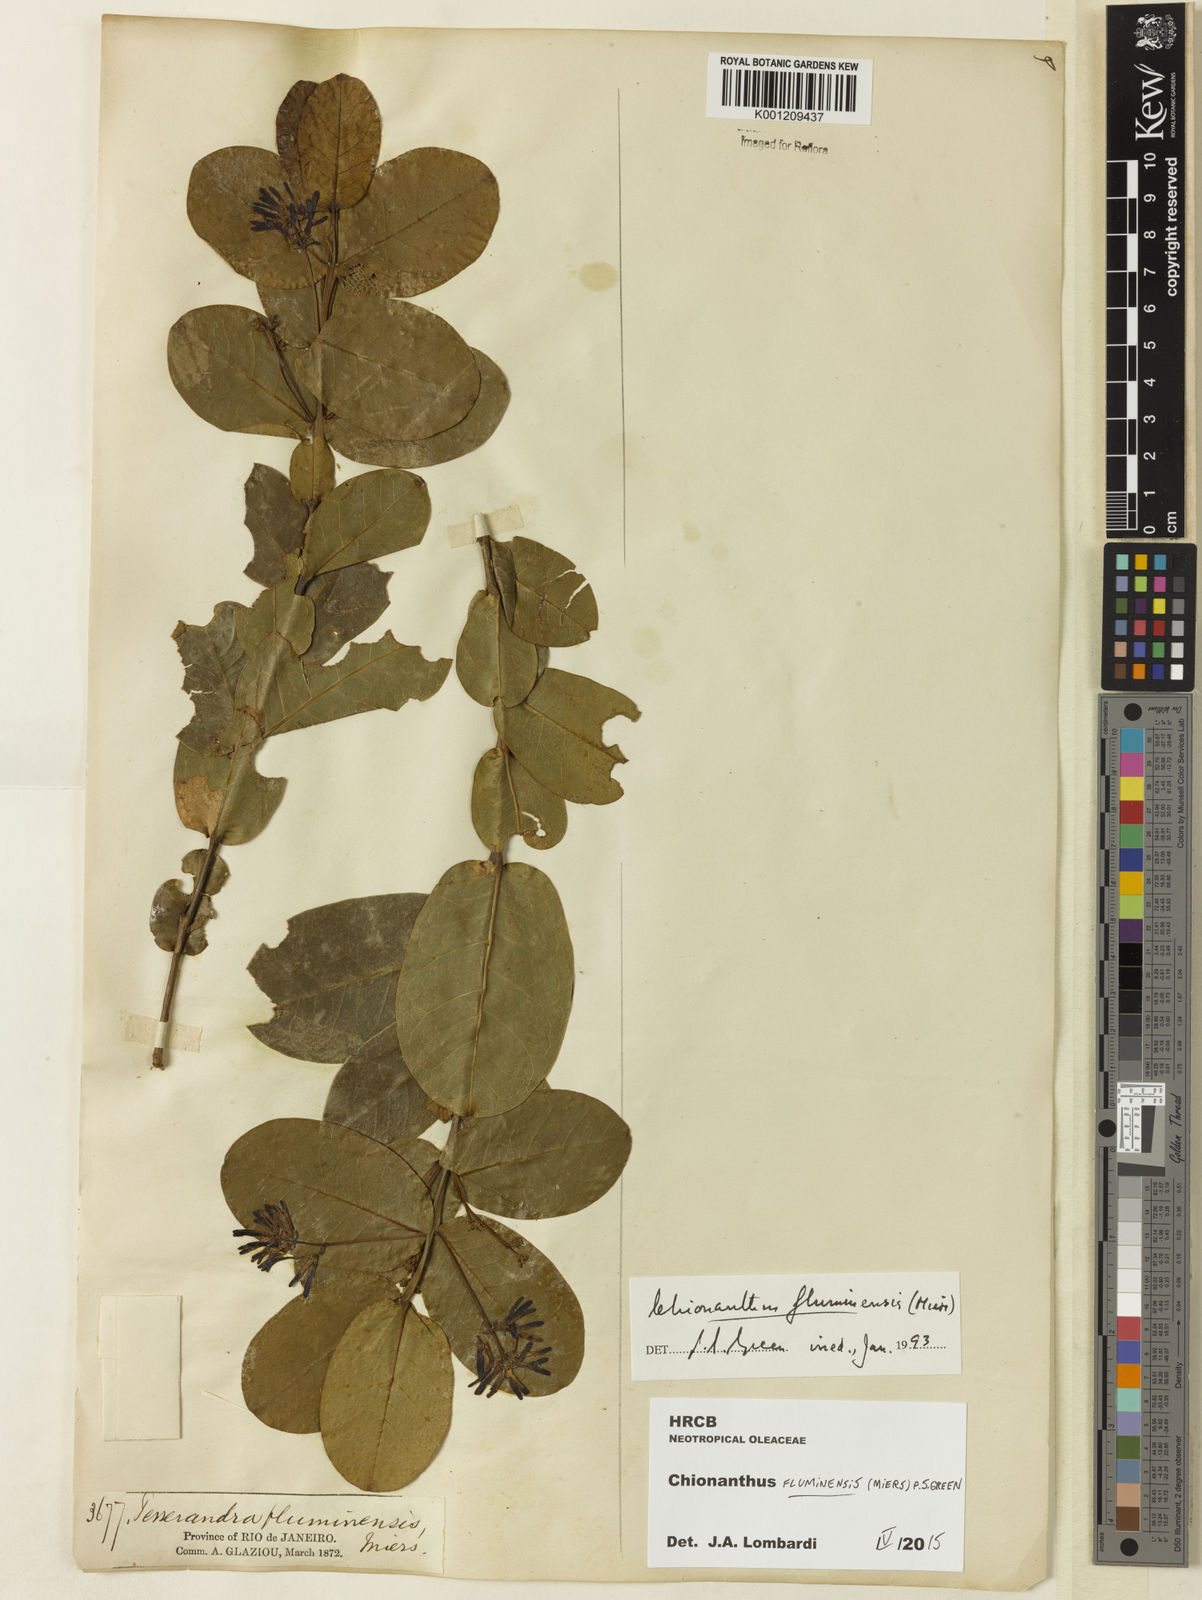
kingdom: Plantae
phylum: Tracheophyta
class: Magnoliopsida
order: Lamiales
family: Oleaceae
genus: Chionanthus
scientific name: Chionanthus fluminensis
